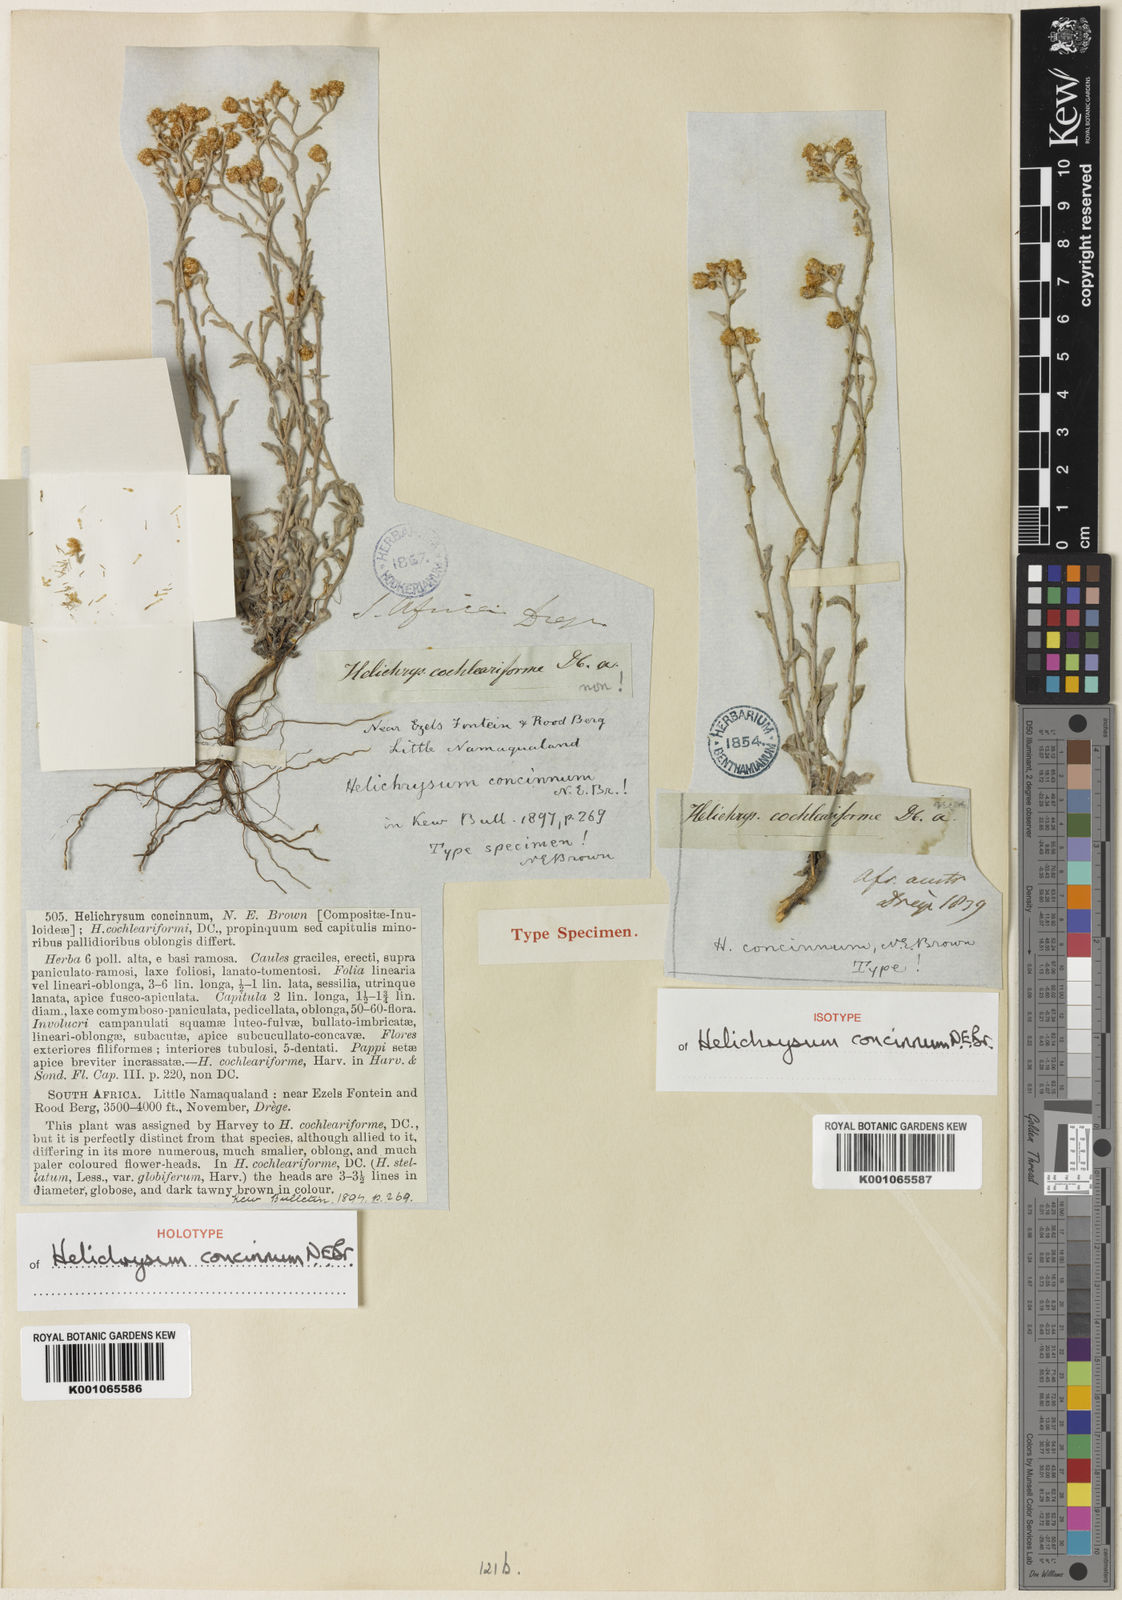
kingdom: Plantae
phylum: Tracheophyta
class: Magnoliopsida
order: Asterales
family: Asteraceae
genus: Helichrysum
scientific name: Helichrysum pulchellum
